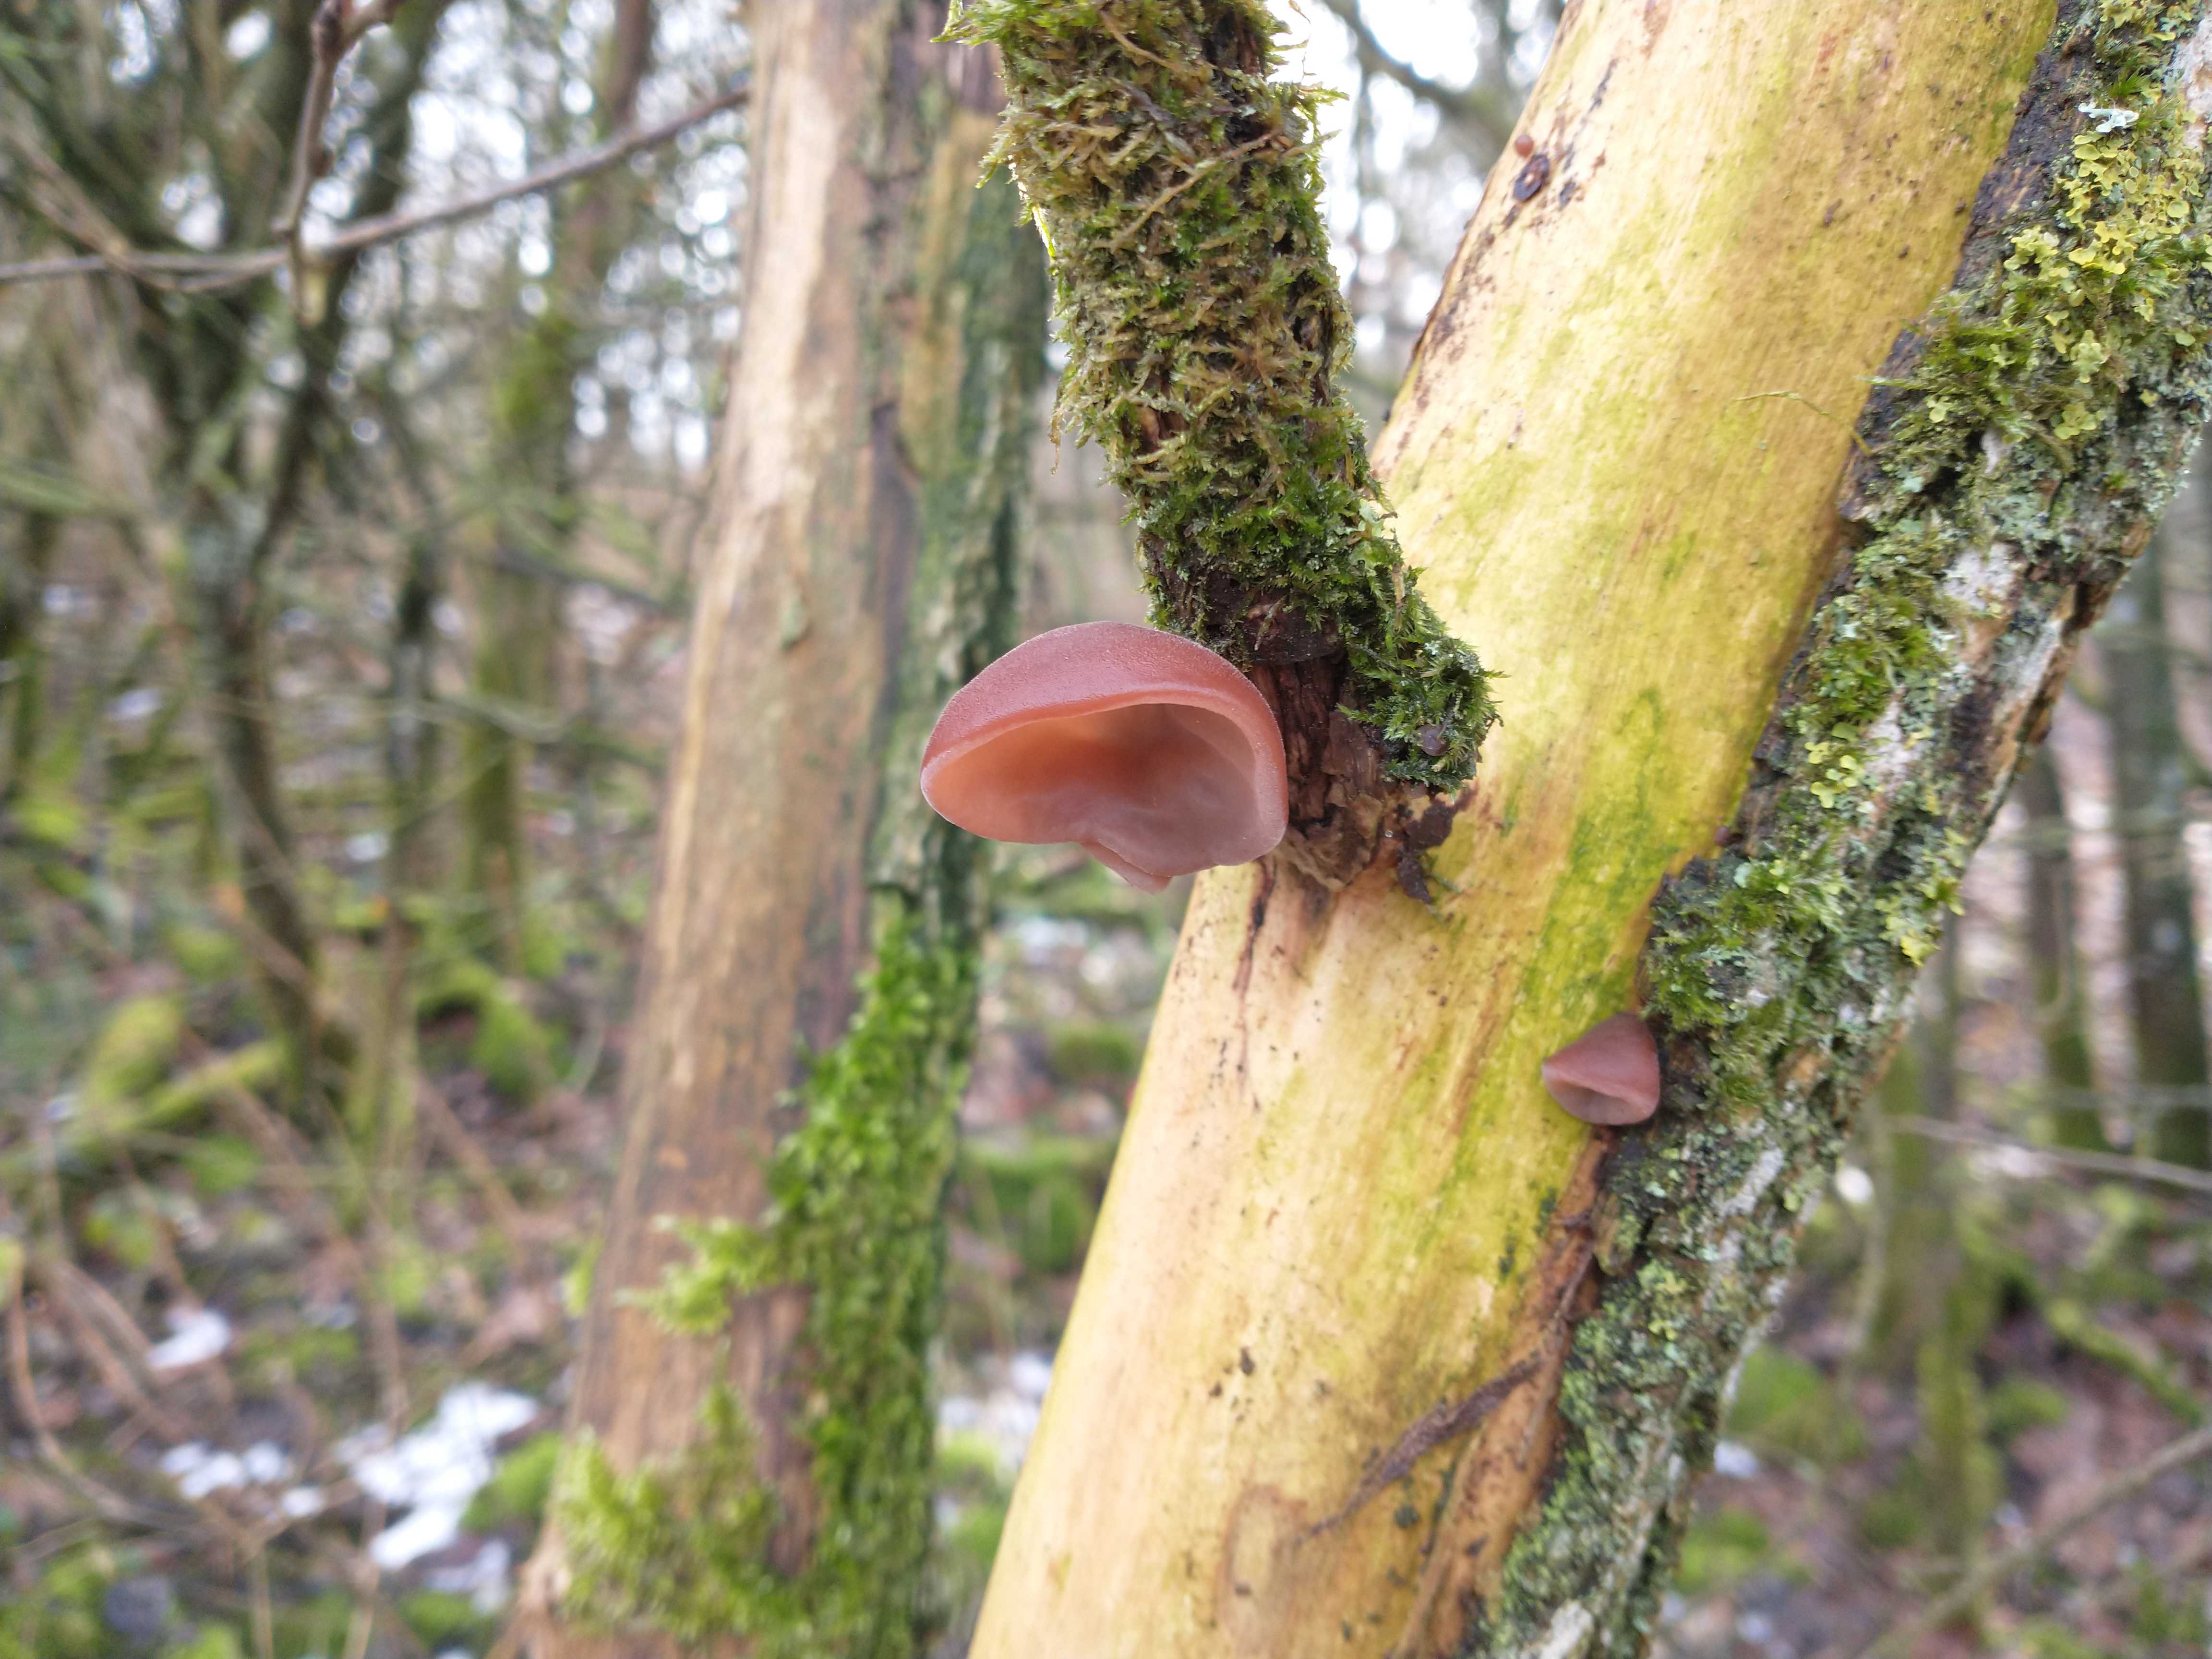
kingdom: Fungi
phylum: Basidiomycota
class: Agaricomycetes
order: Auriculariales
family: Auriculariaceae
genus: Auricularia
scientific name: Auricularia auricula-judae
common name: almindelig judasøre
